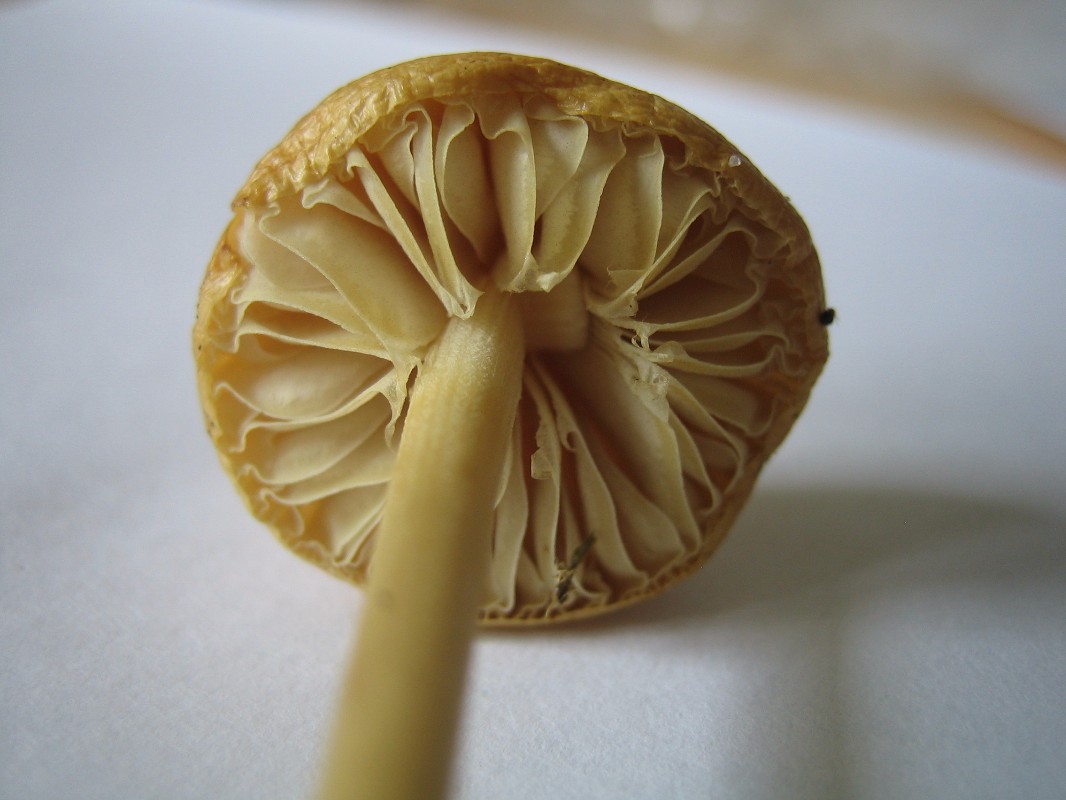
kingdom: Fungi
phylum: Basidiomycota
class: Agaricomycetes
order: Agaricales
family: Strophariaceae
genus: Protostropharia
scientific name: Protostropharia semiglobata
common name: halvkugleformet bredblad
